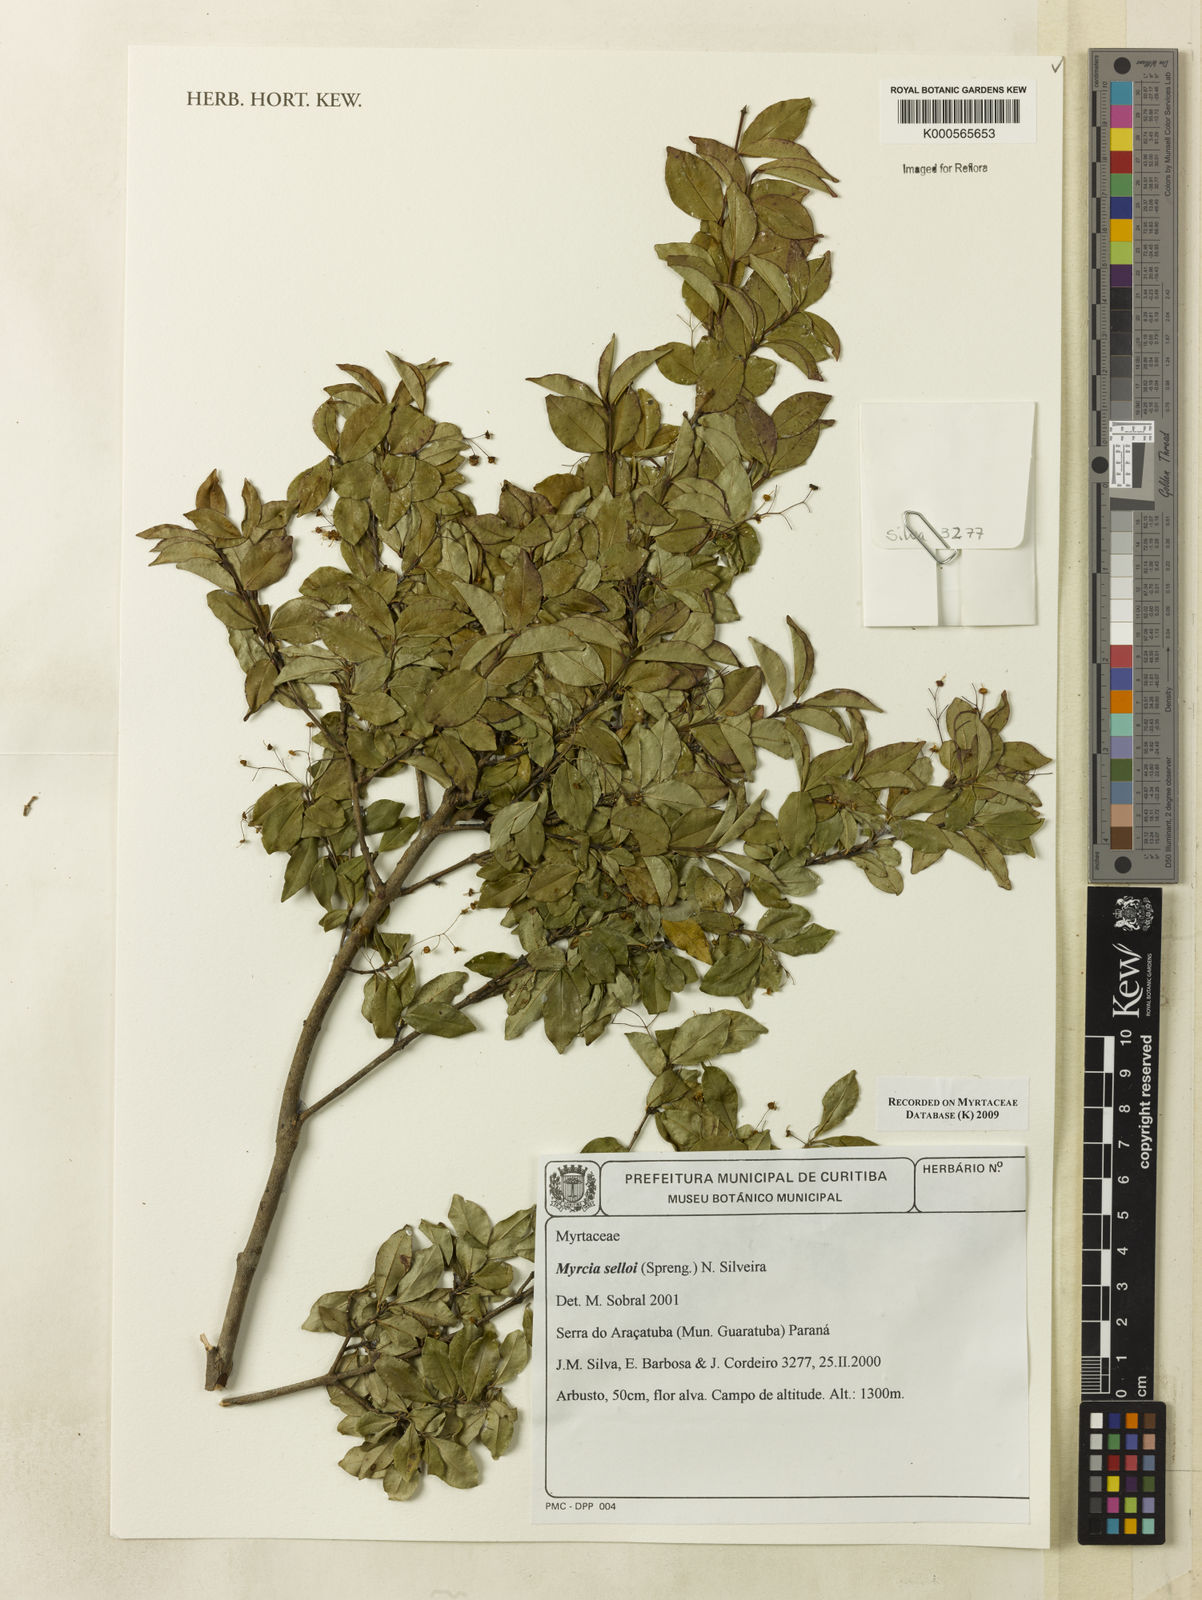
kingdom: Plantae
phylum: Tracheophyta
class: Magnoliopsida
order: Myrtales
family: Myrtaceae
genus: Myrcia
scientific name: Myrcia selloi
